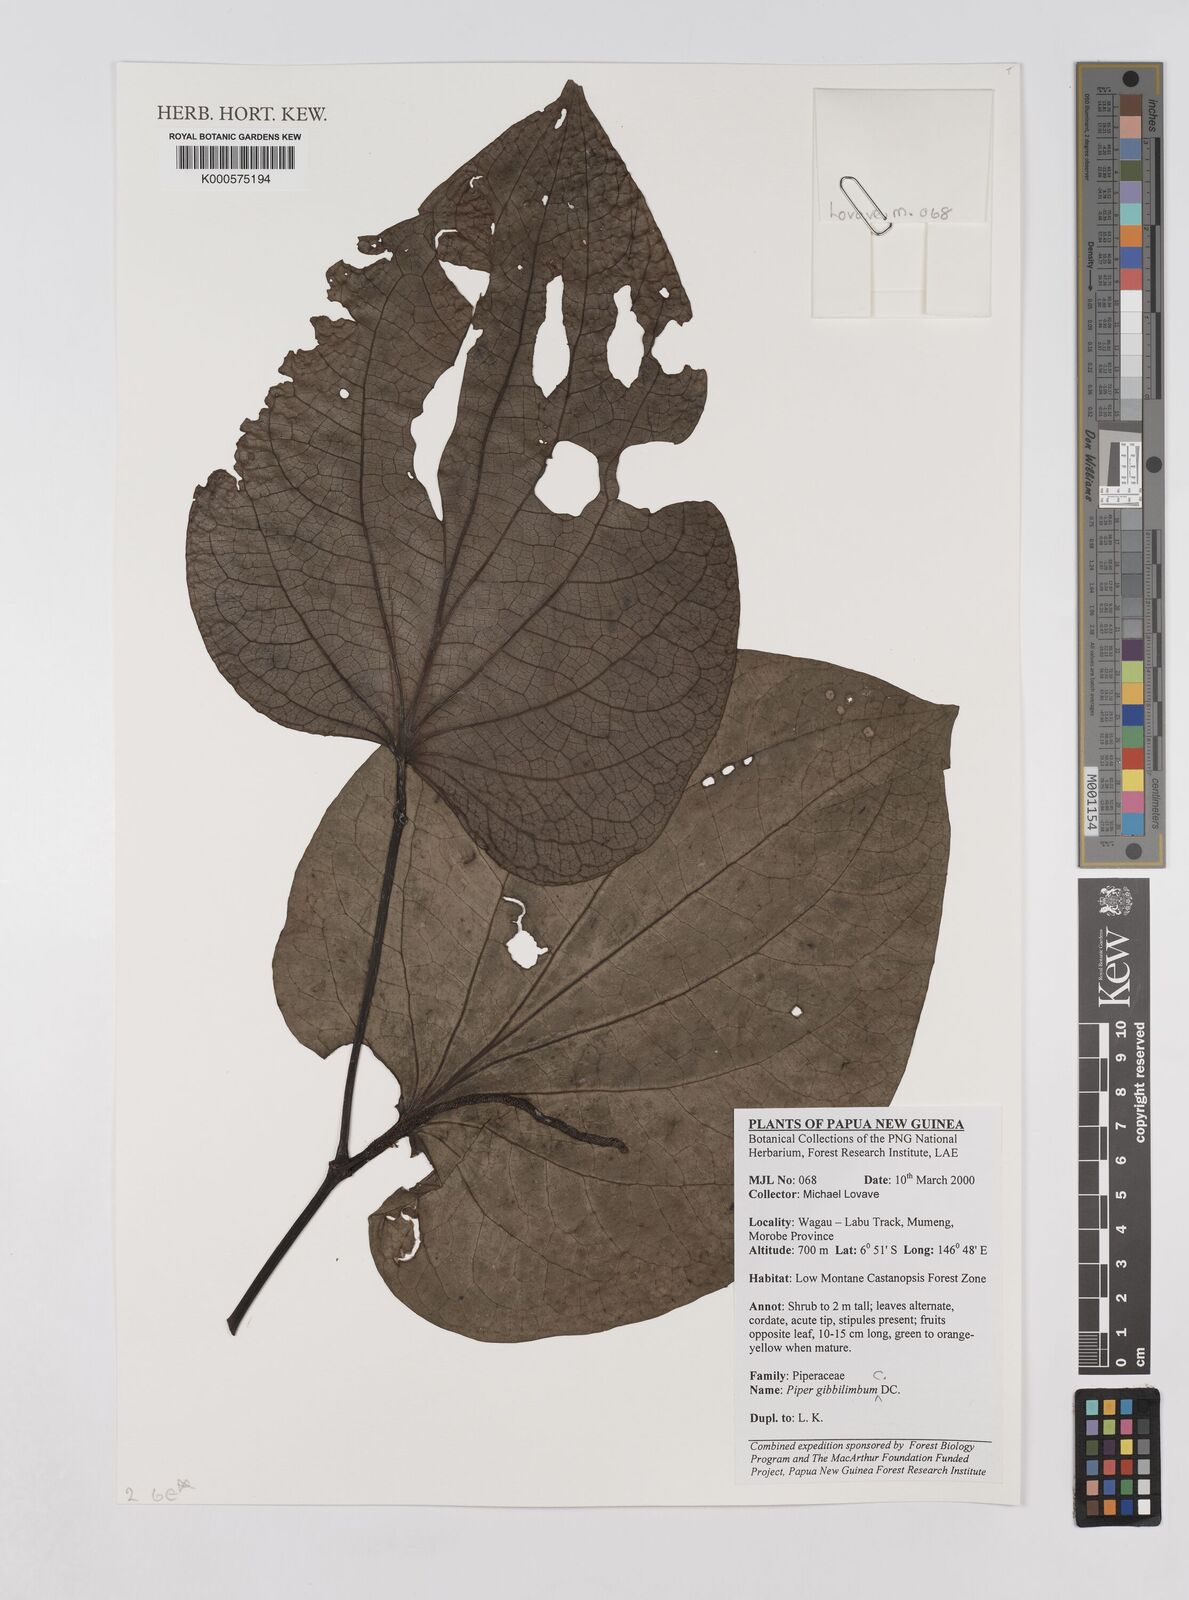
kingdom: Plantae
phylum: Tracheophyta
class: Magnoliopsida
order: Piperales
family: Piperaceae
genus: Piper
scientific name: Piper gibbilimbum
